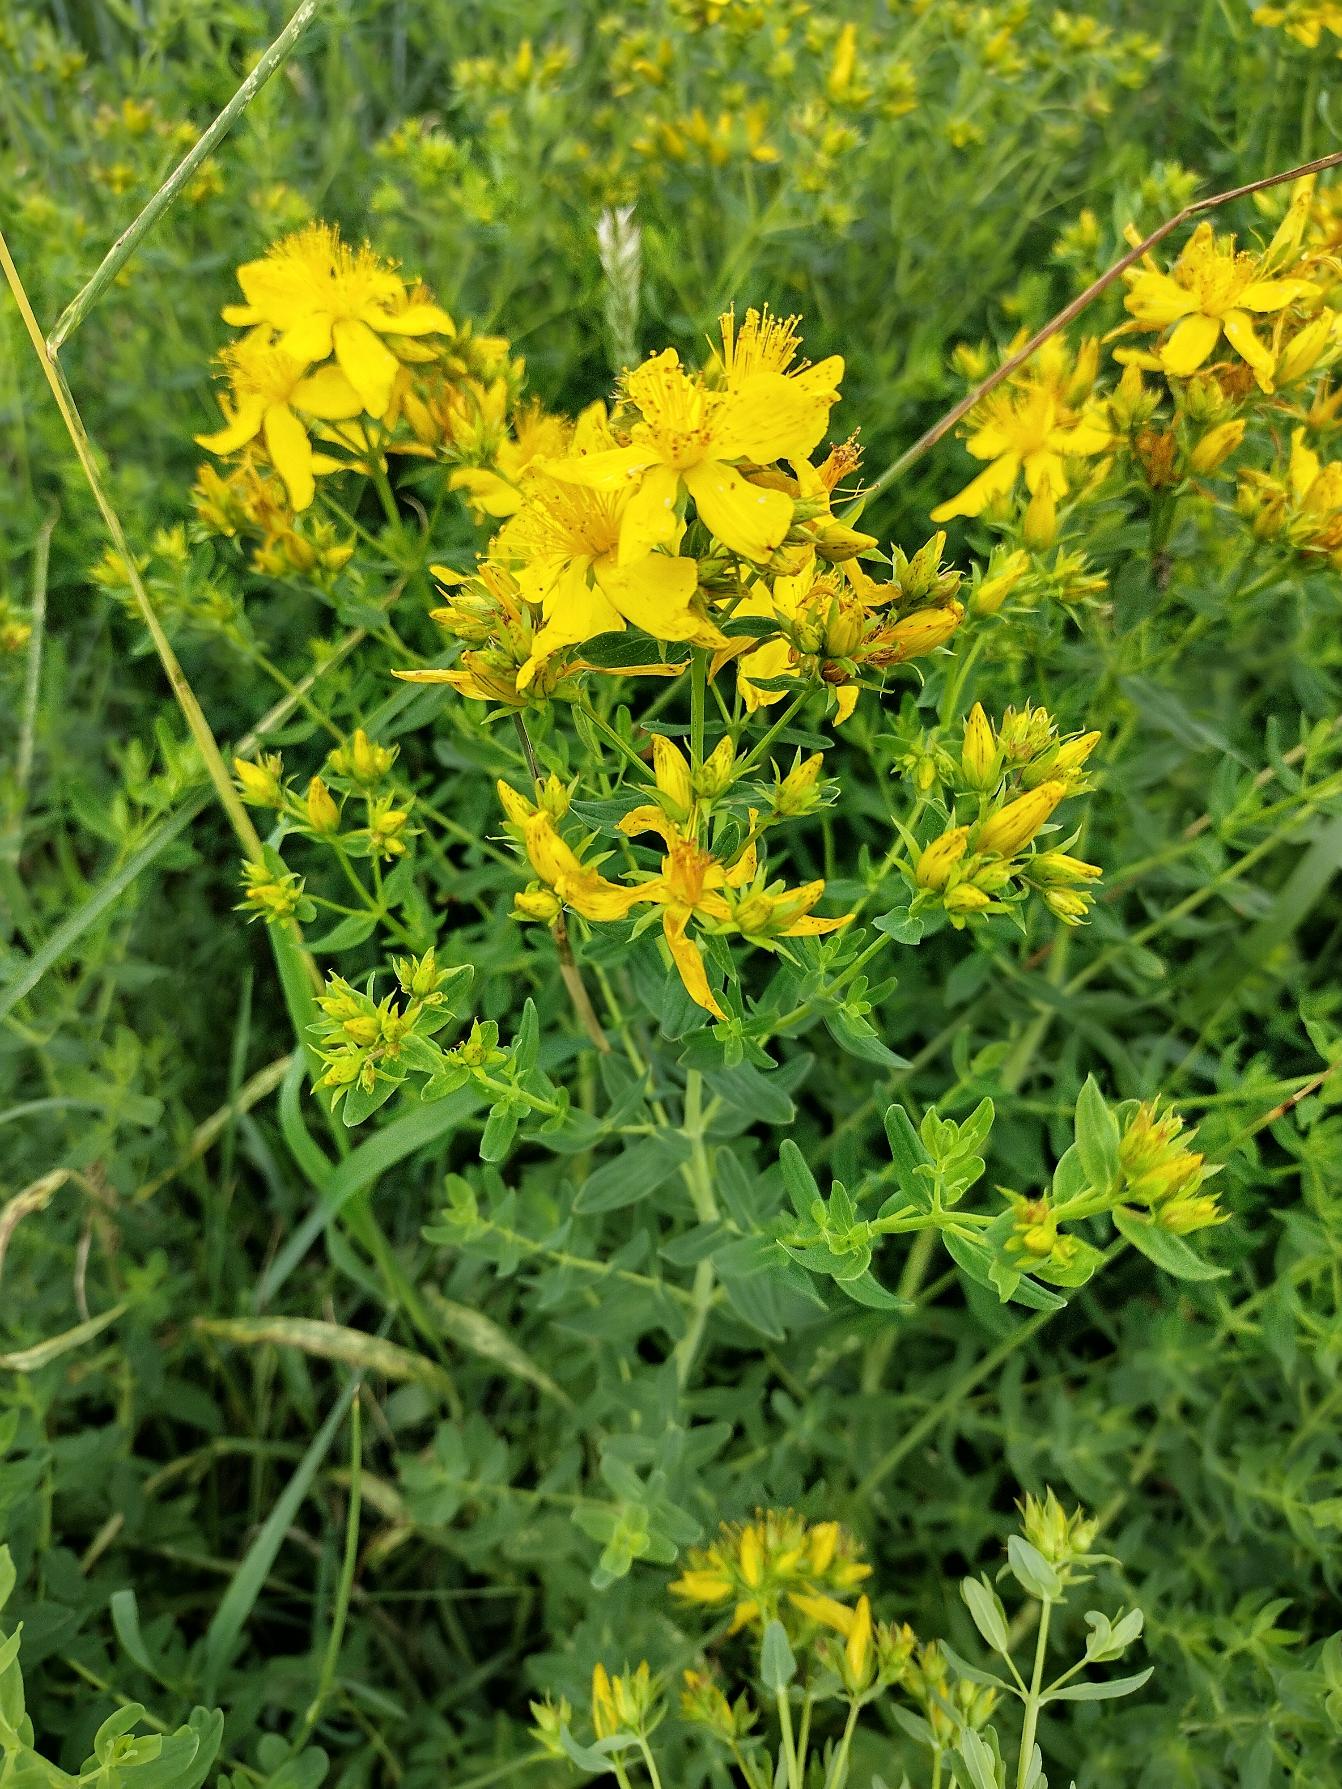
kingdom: Plantae
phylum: Tracheophyta
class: Magnoliopsida
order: Malpighiales
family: Hypericaceae
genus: Hypericum
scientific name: Hypericum perforatum
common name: Prikbladet perikon
